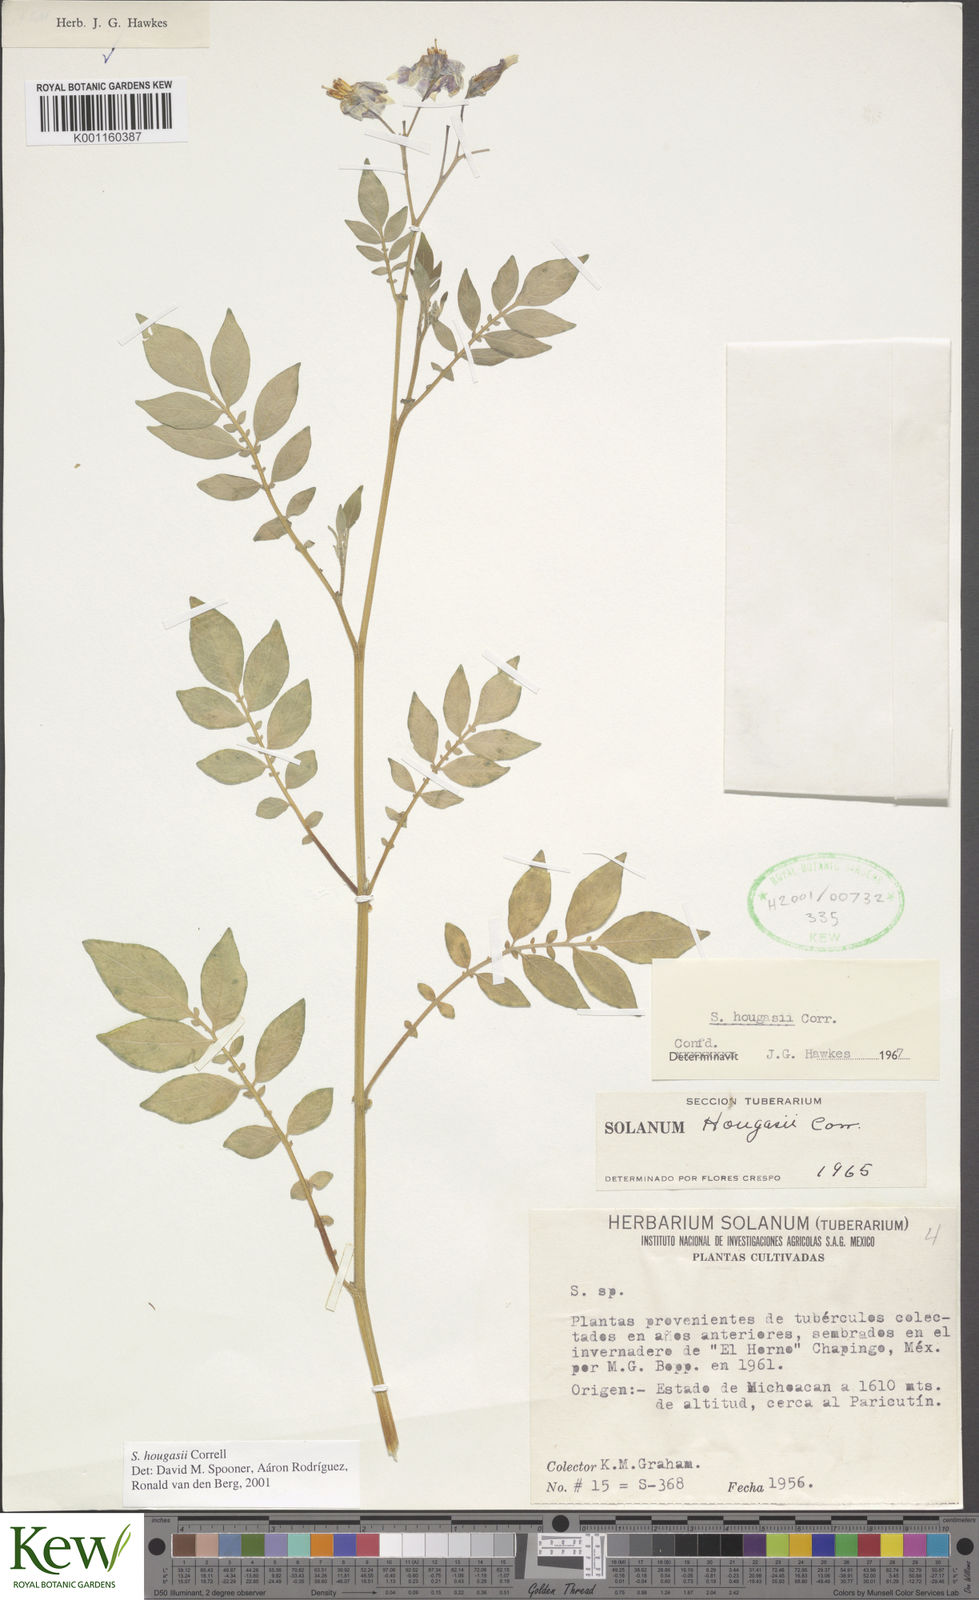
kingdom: Plantae
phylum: Tracheophyta
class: Magnoliopsida
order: Solanales
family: Solanaceae
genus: Solanum
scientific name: Solanum hougasii
